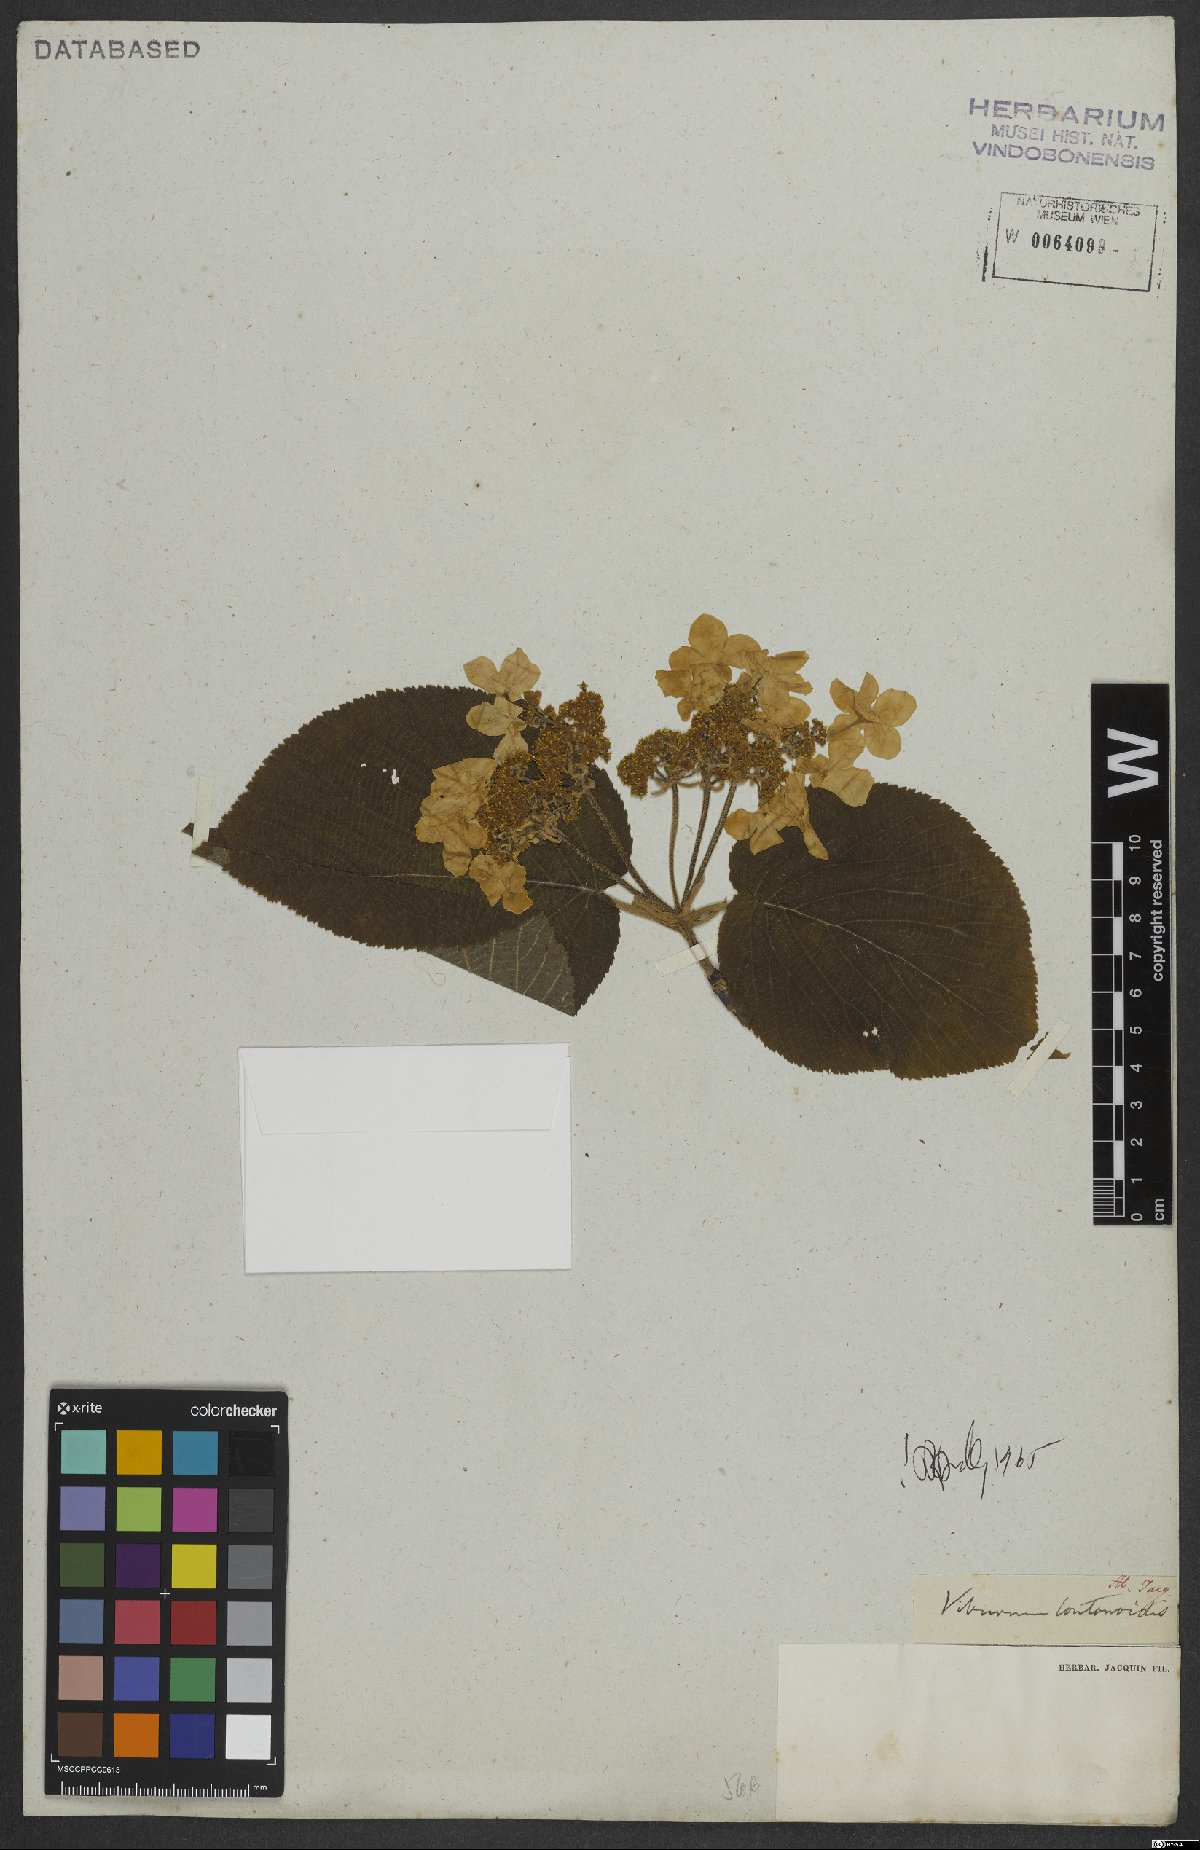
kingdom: Plantae
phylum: Tracheophyta
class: Magnoliopsida
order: Dipsacales
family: Viburnaceae
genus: Viburnum
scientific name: Viburnum lantanoides
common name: Hobblebush
